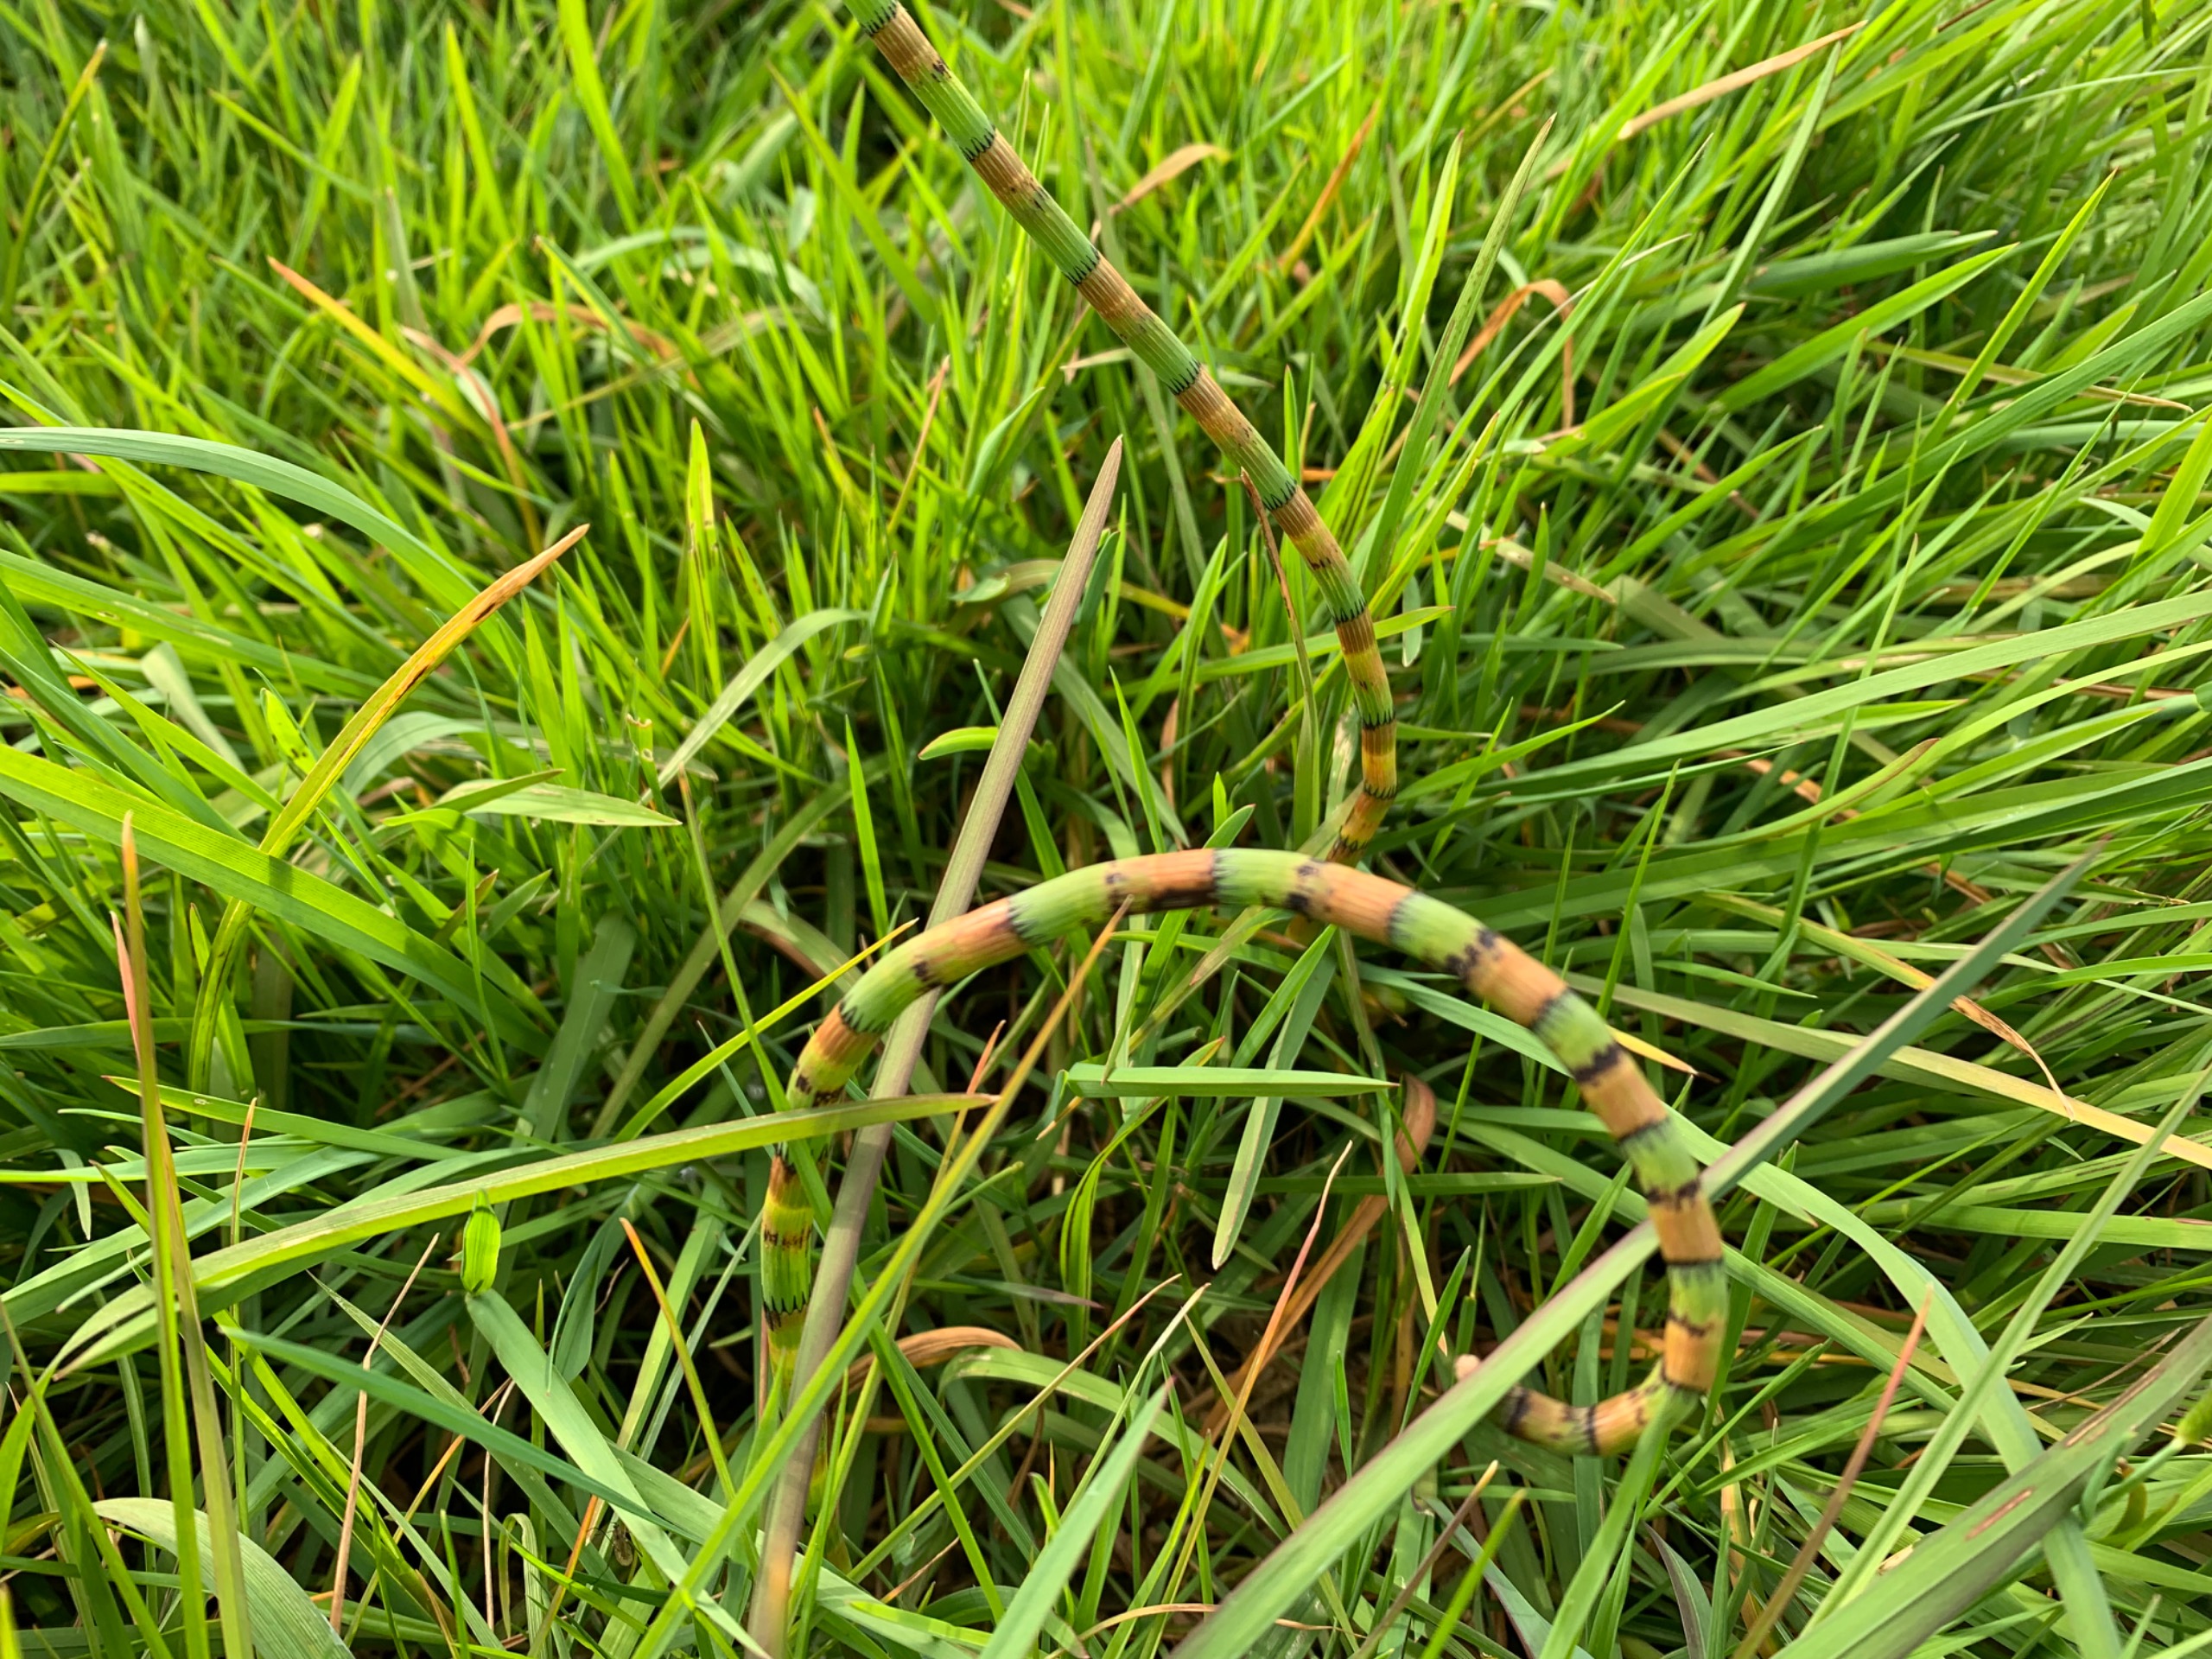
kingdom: Plantae
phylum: Tracheophyta
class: Polypodiopsida
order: Equisetales
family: Equisetaceae
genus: Equisetum
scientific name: Equisetum fluviatile
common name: Dynd-padderok
